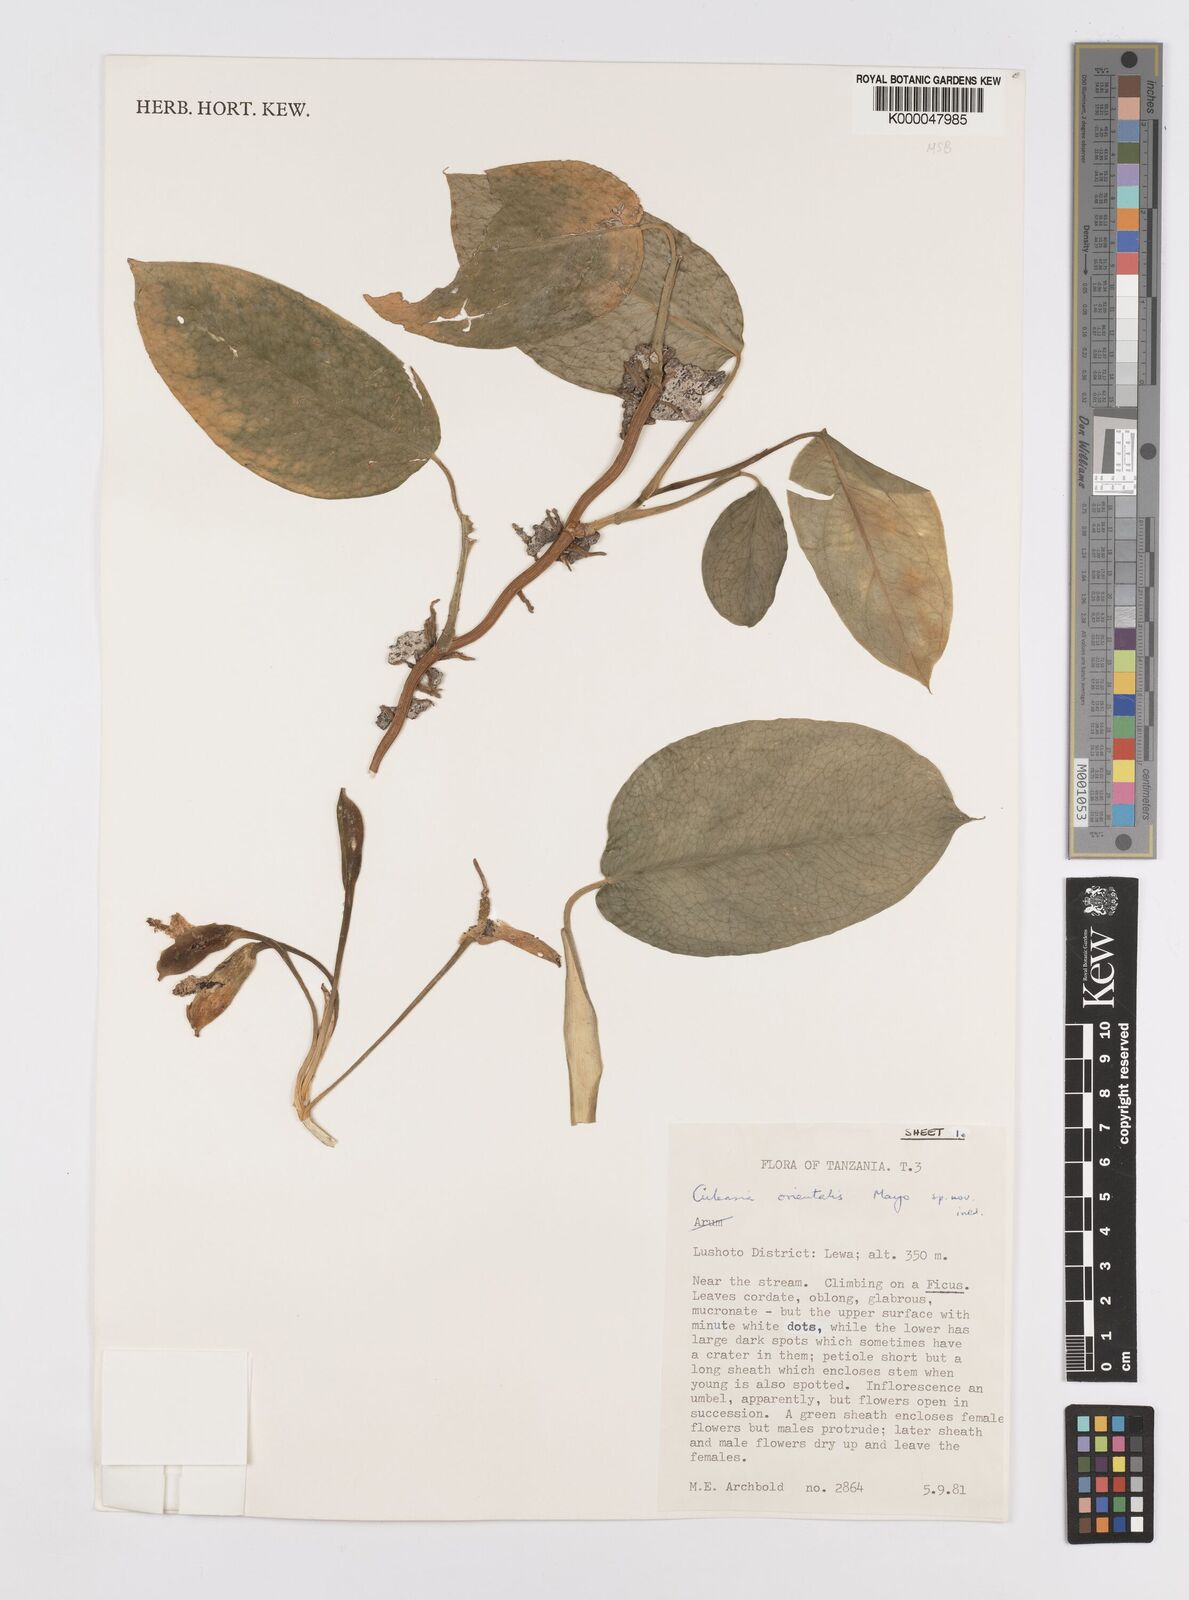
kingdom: Plantae
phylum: Tracheophyta
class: Liliopsida
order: Alismatales
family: Araceae
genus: Culcasia
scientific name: Culcasia orientalis
